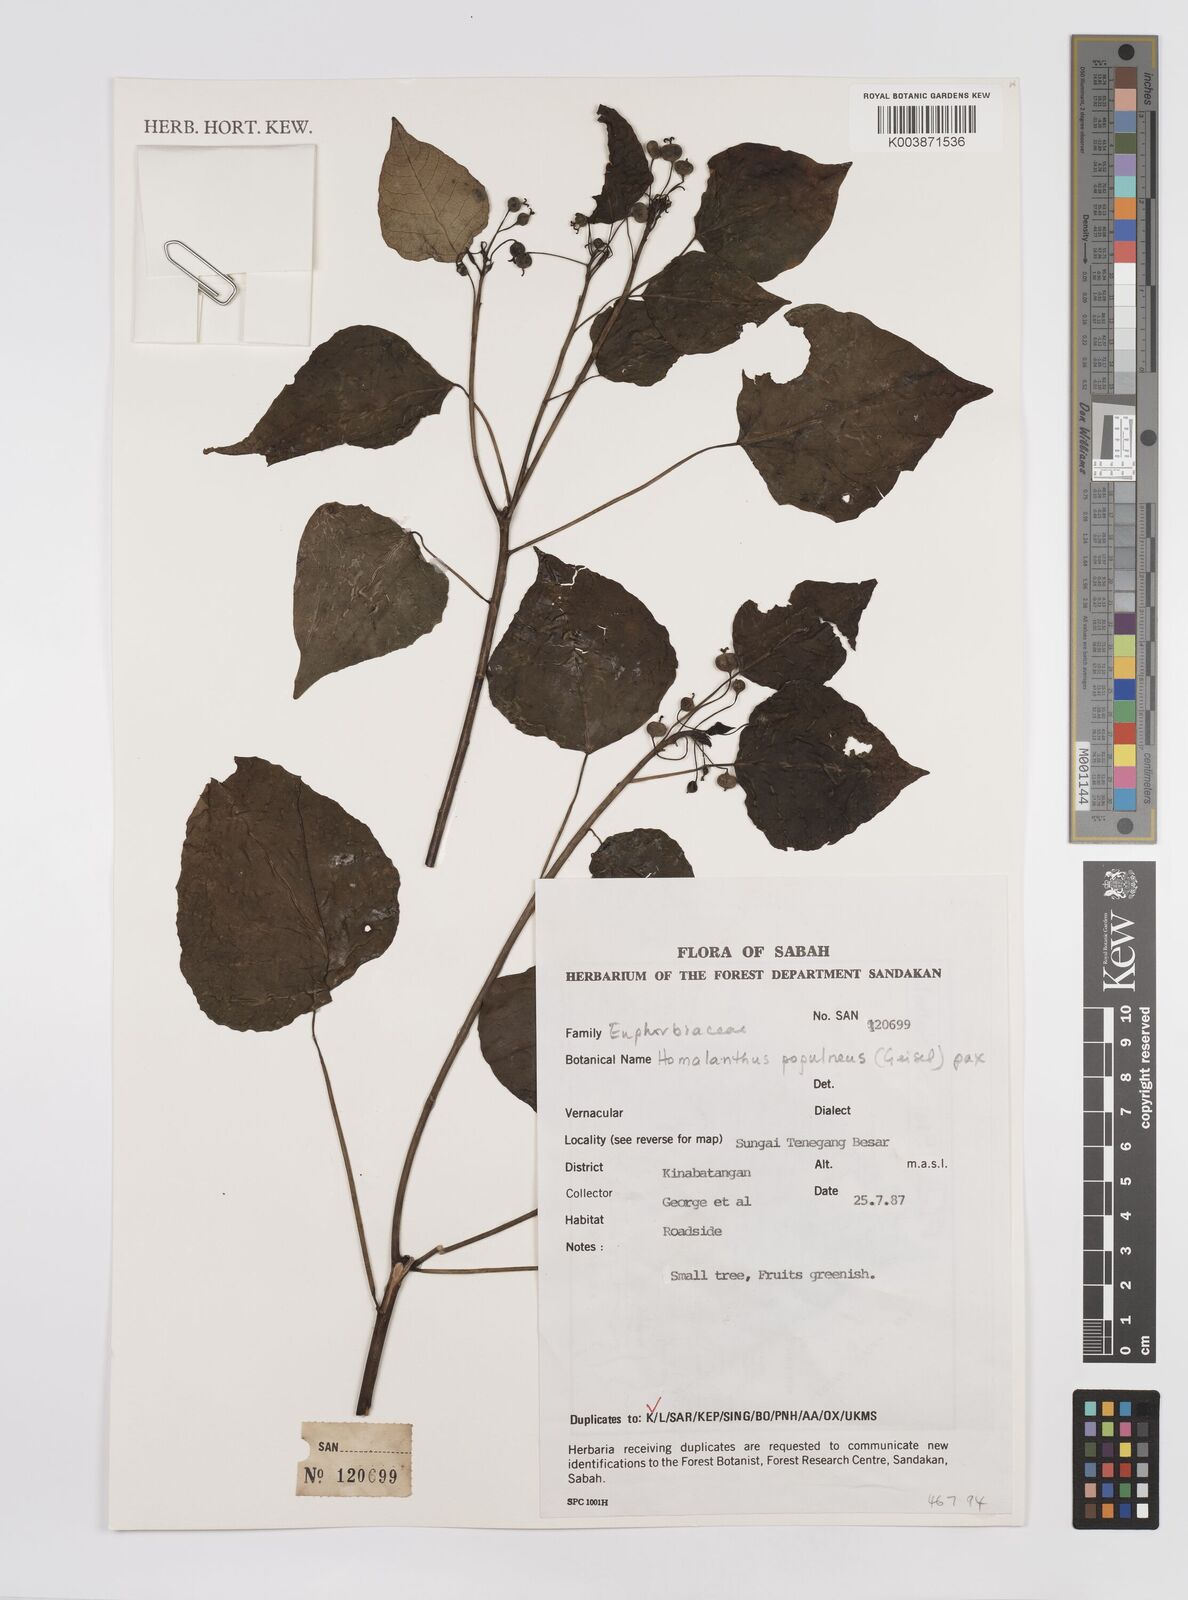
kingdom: Plantae
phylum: Tracheophyta
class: Magnoliopsida
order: Malpighiales
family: Euphorbiaceae
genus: Homalanthus
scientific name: Homalanthus populneus
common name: Spurge
